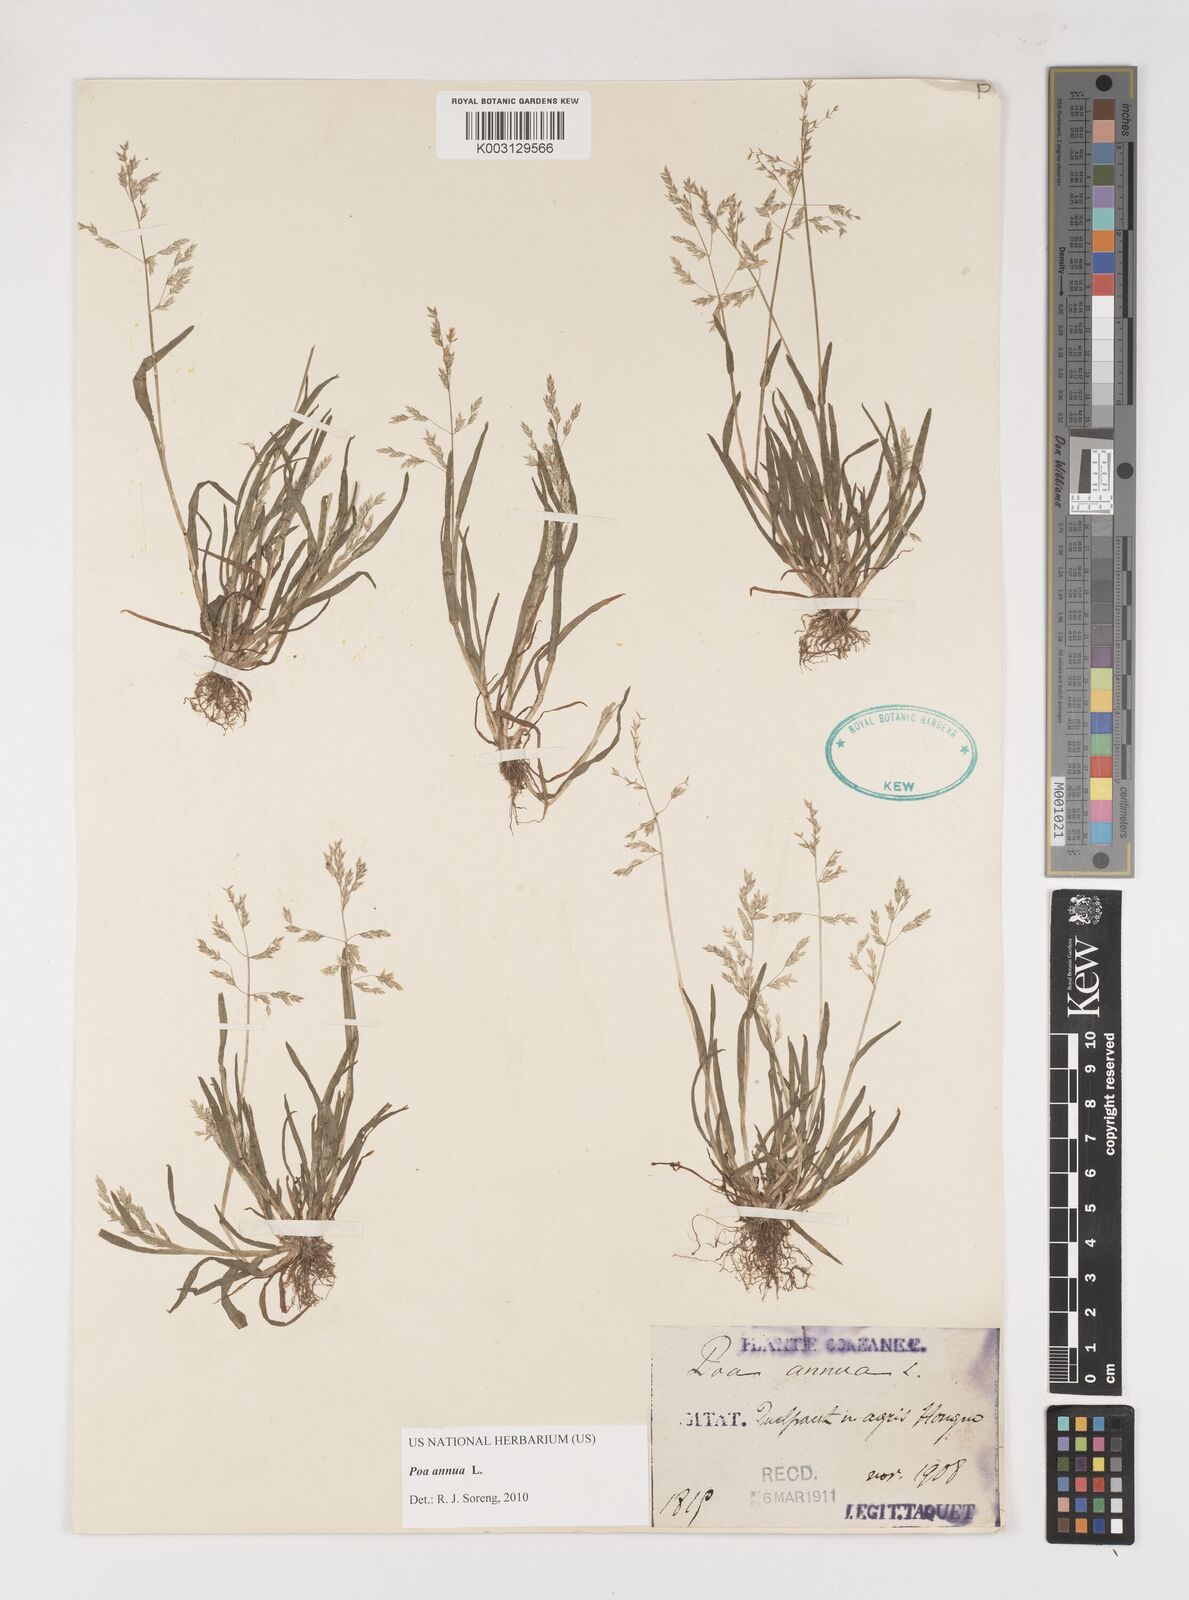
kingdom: Plantae
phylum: Tracheophyta
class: Liliopsida
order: Poales
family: Poaceae
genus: Poa
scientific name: Poa annua
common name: Annual bluegrass
